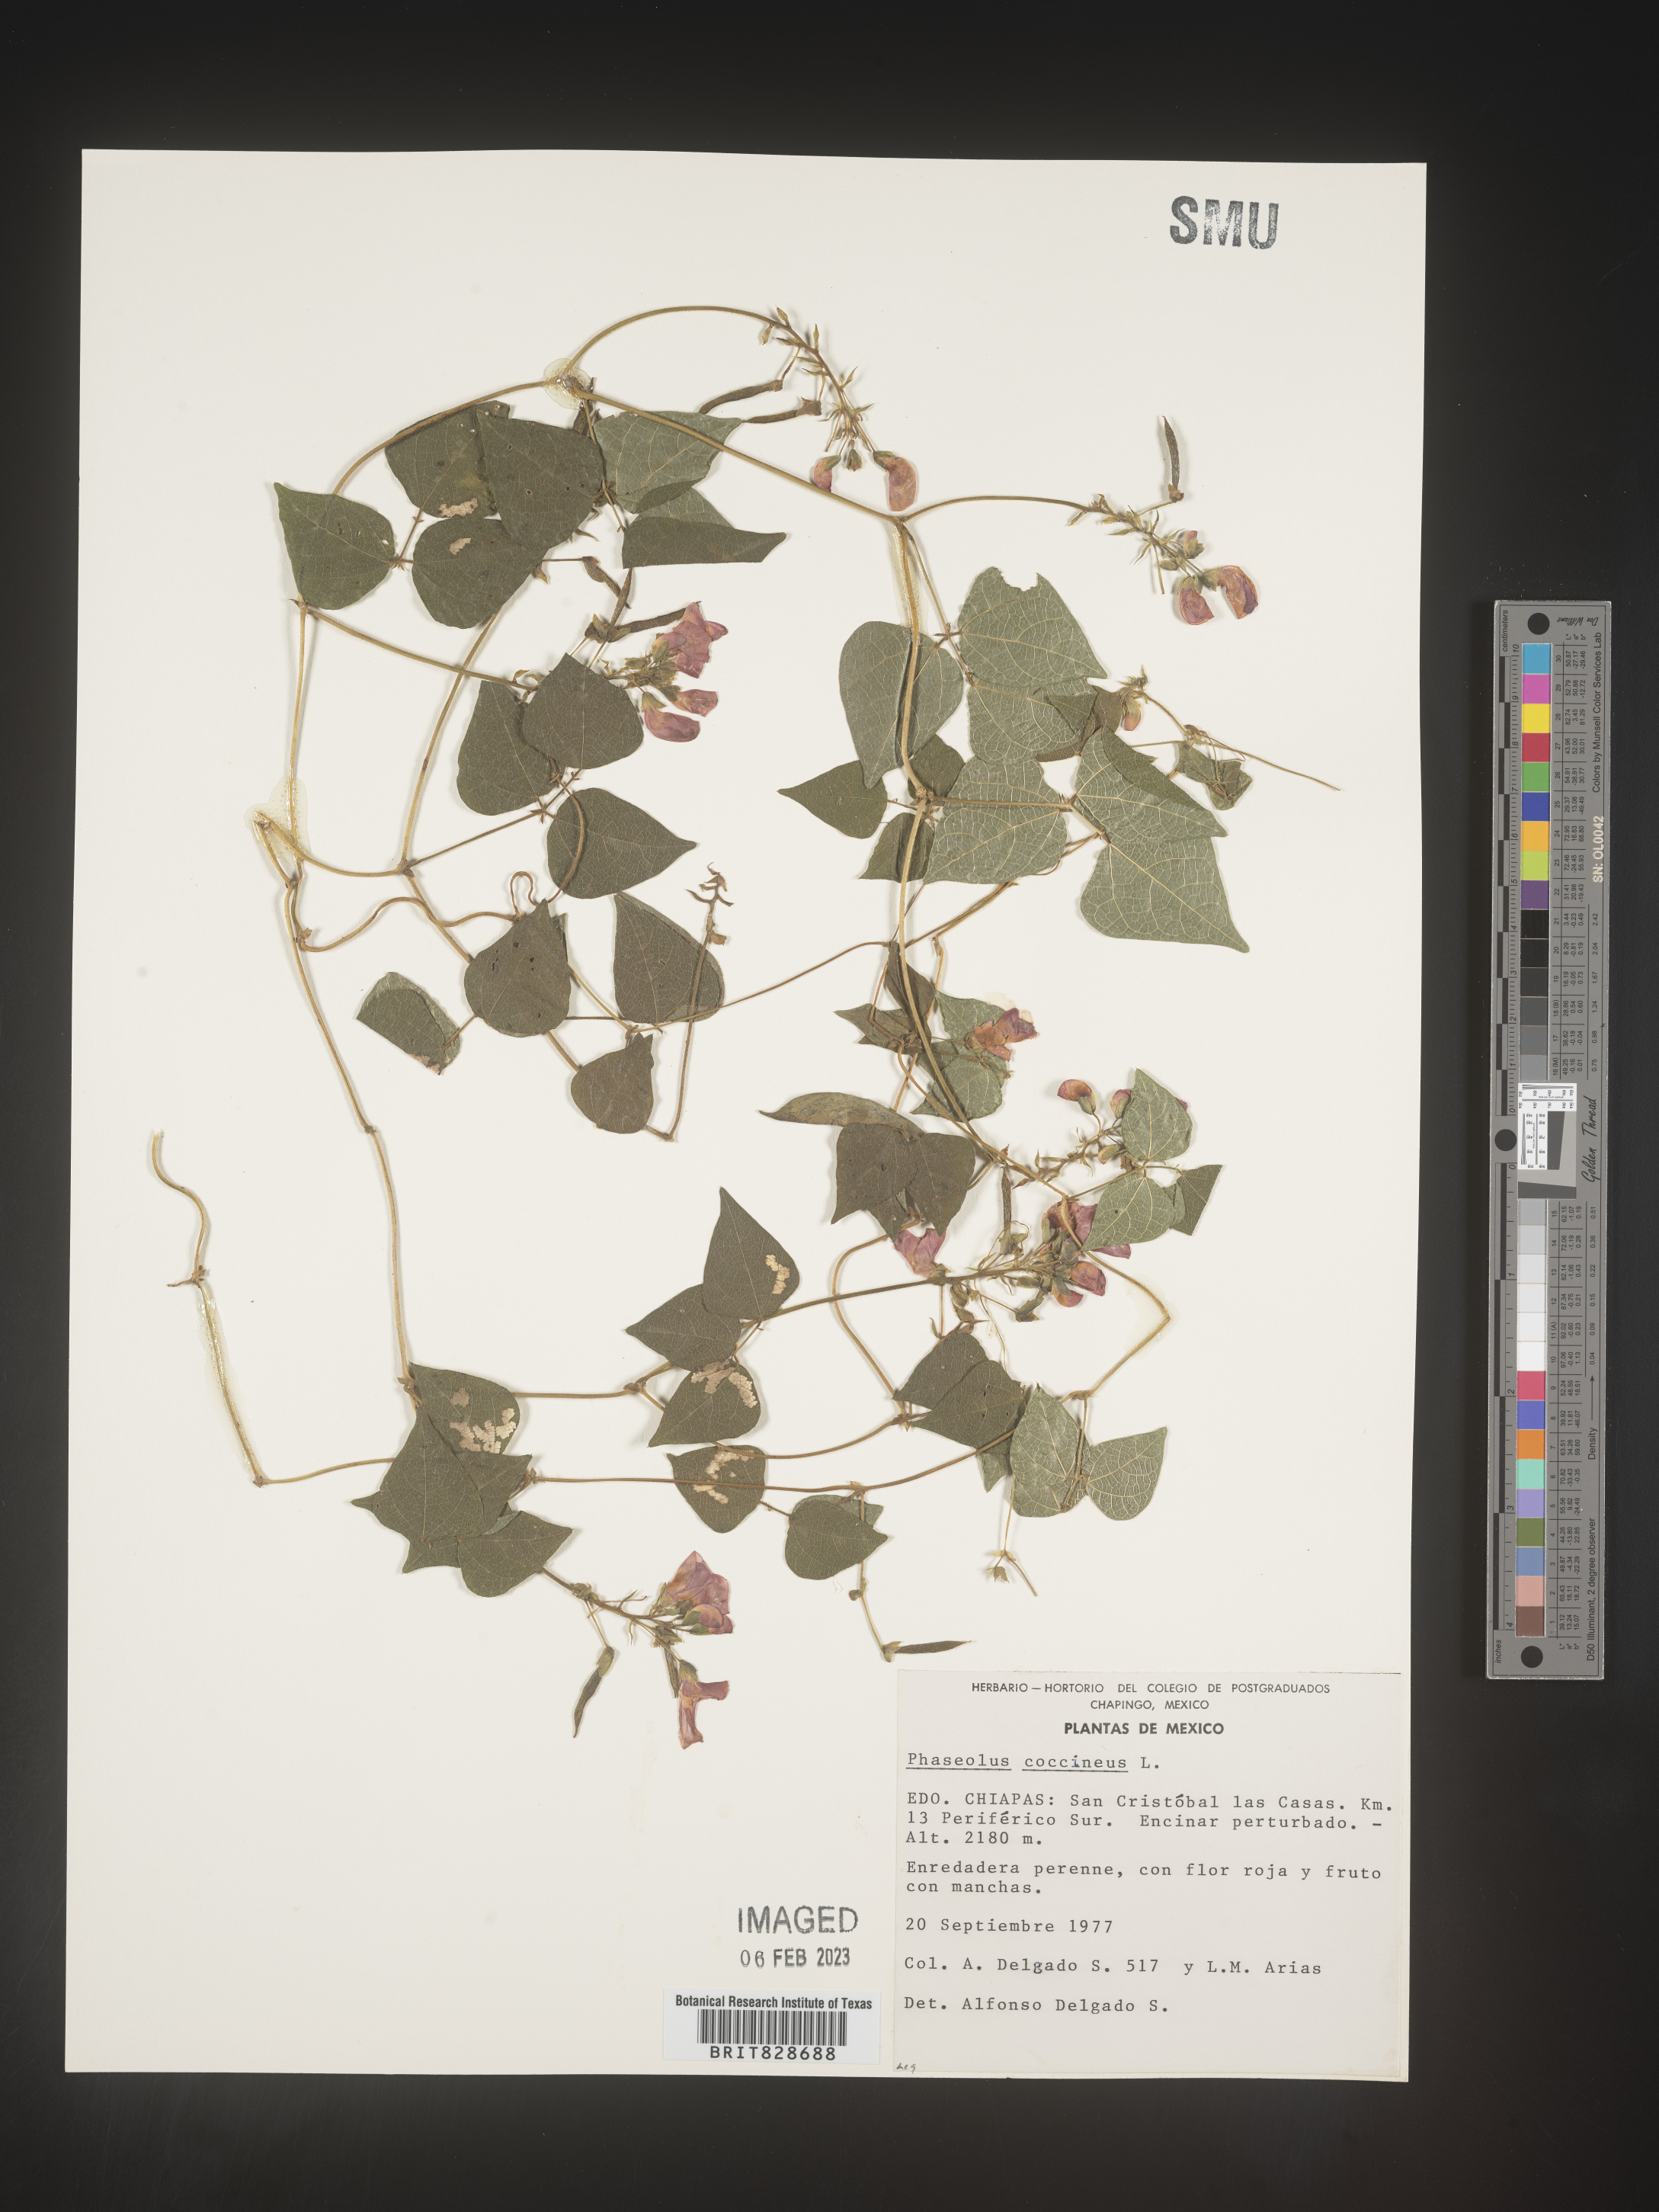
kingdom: Plantae
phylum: Tracheophyta
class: Magnoliopsida
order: Fabales
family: Fabaceae
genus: Phaseolus
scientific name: Phaseolus
